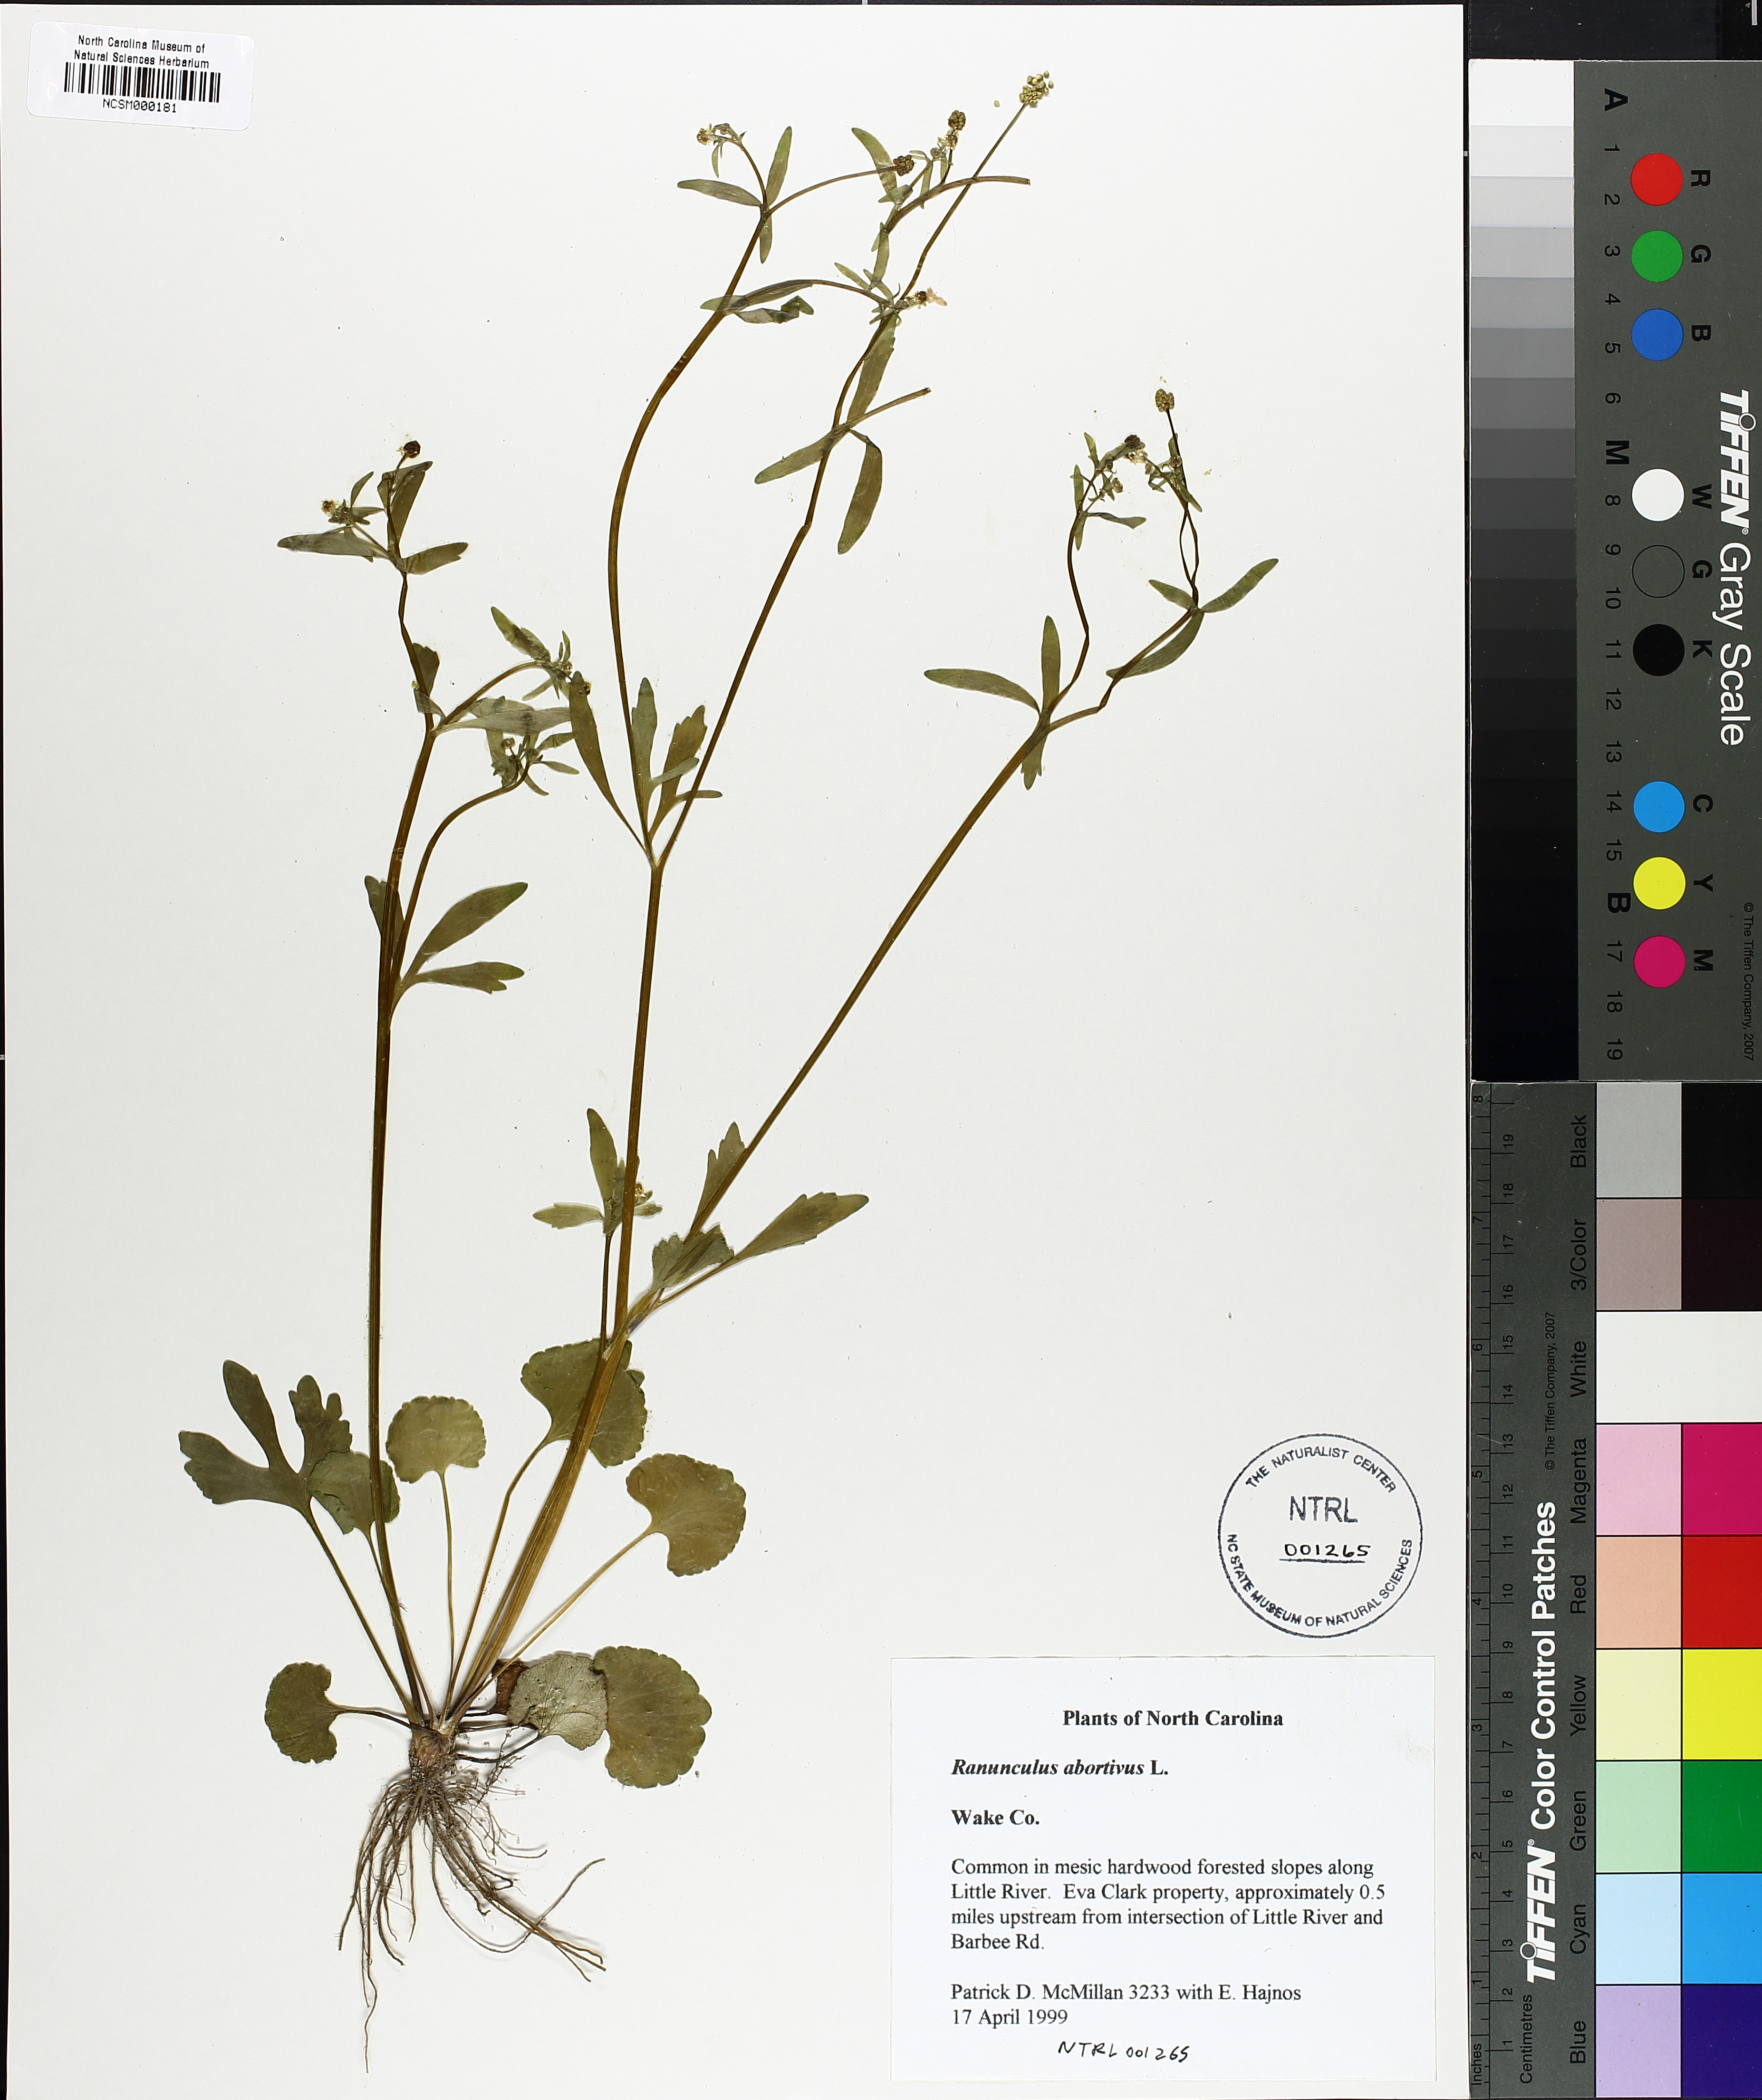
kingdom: Plantae
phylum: Tracheophyta
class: Magnoliopsida
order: Ranunculales
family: Ranunculaceae
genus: Ranunculus
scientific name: Ranunculus abortivus
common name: Early wood buttercup
